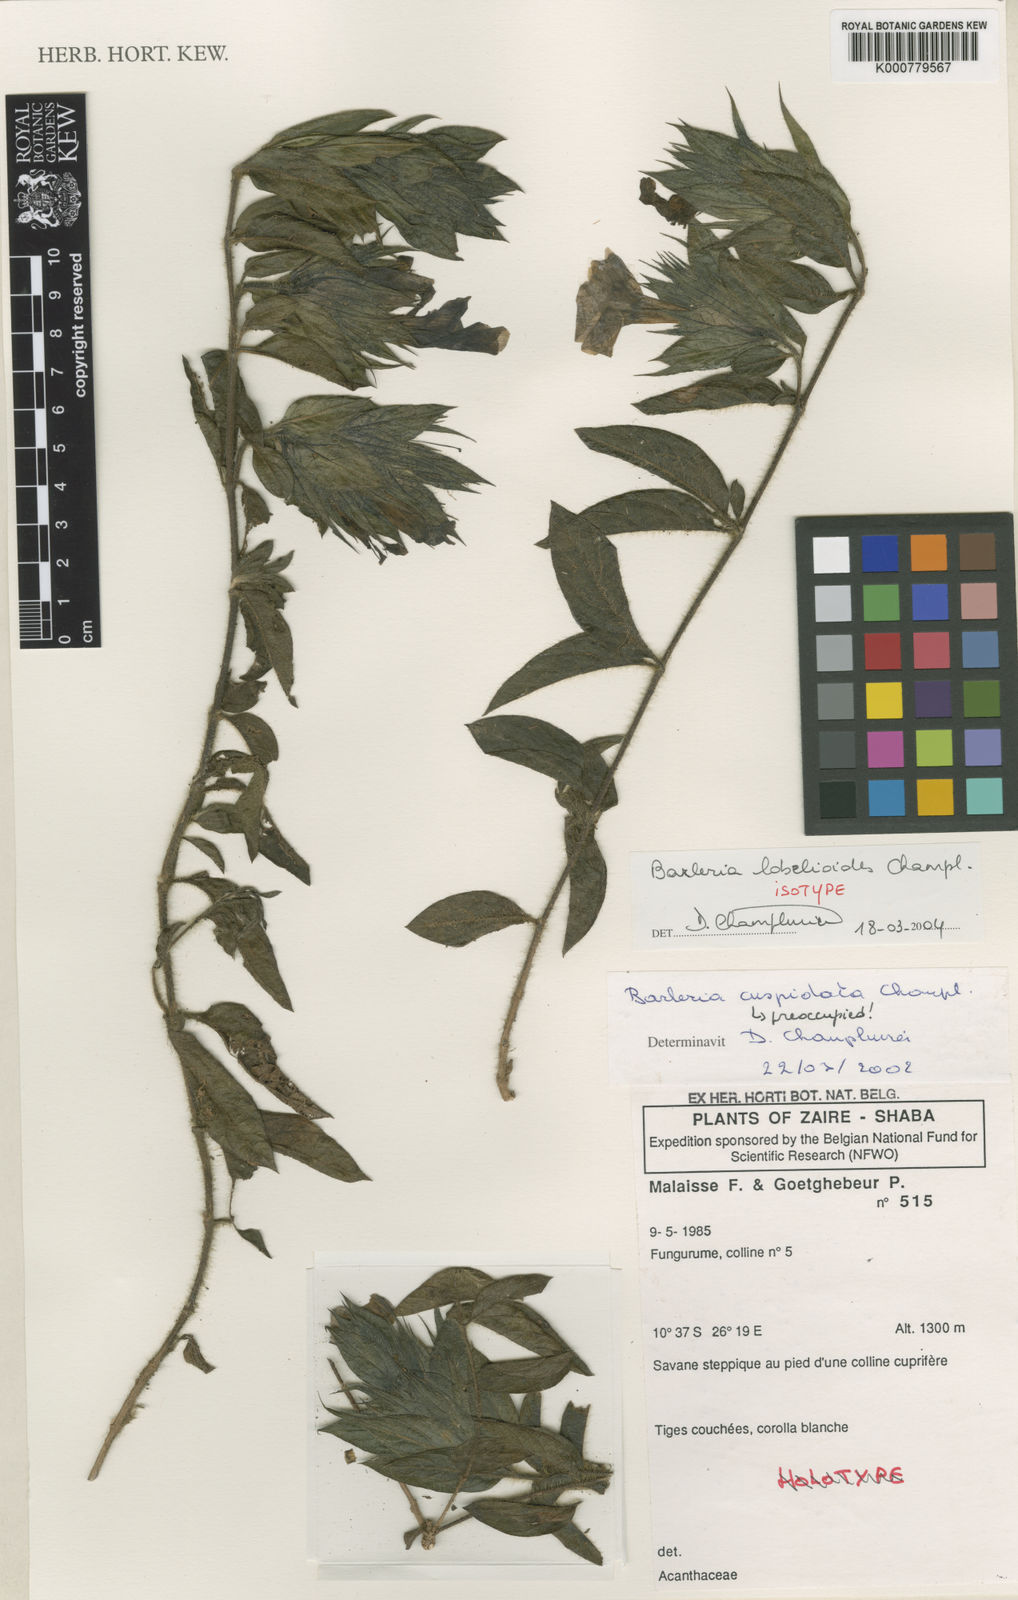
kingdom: Plantae
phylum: Tracheophyta
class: Magnoliopsida
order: Lamiales
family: Acanthaceae
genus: Barleria
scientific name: Barleria lobelioides
